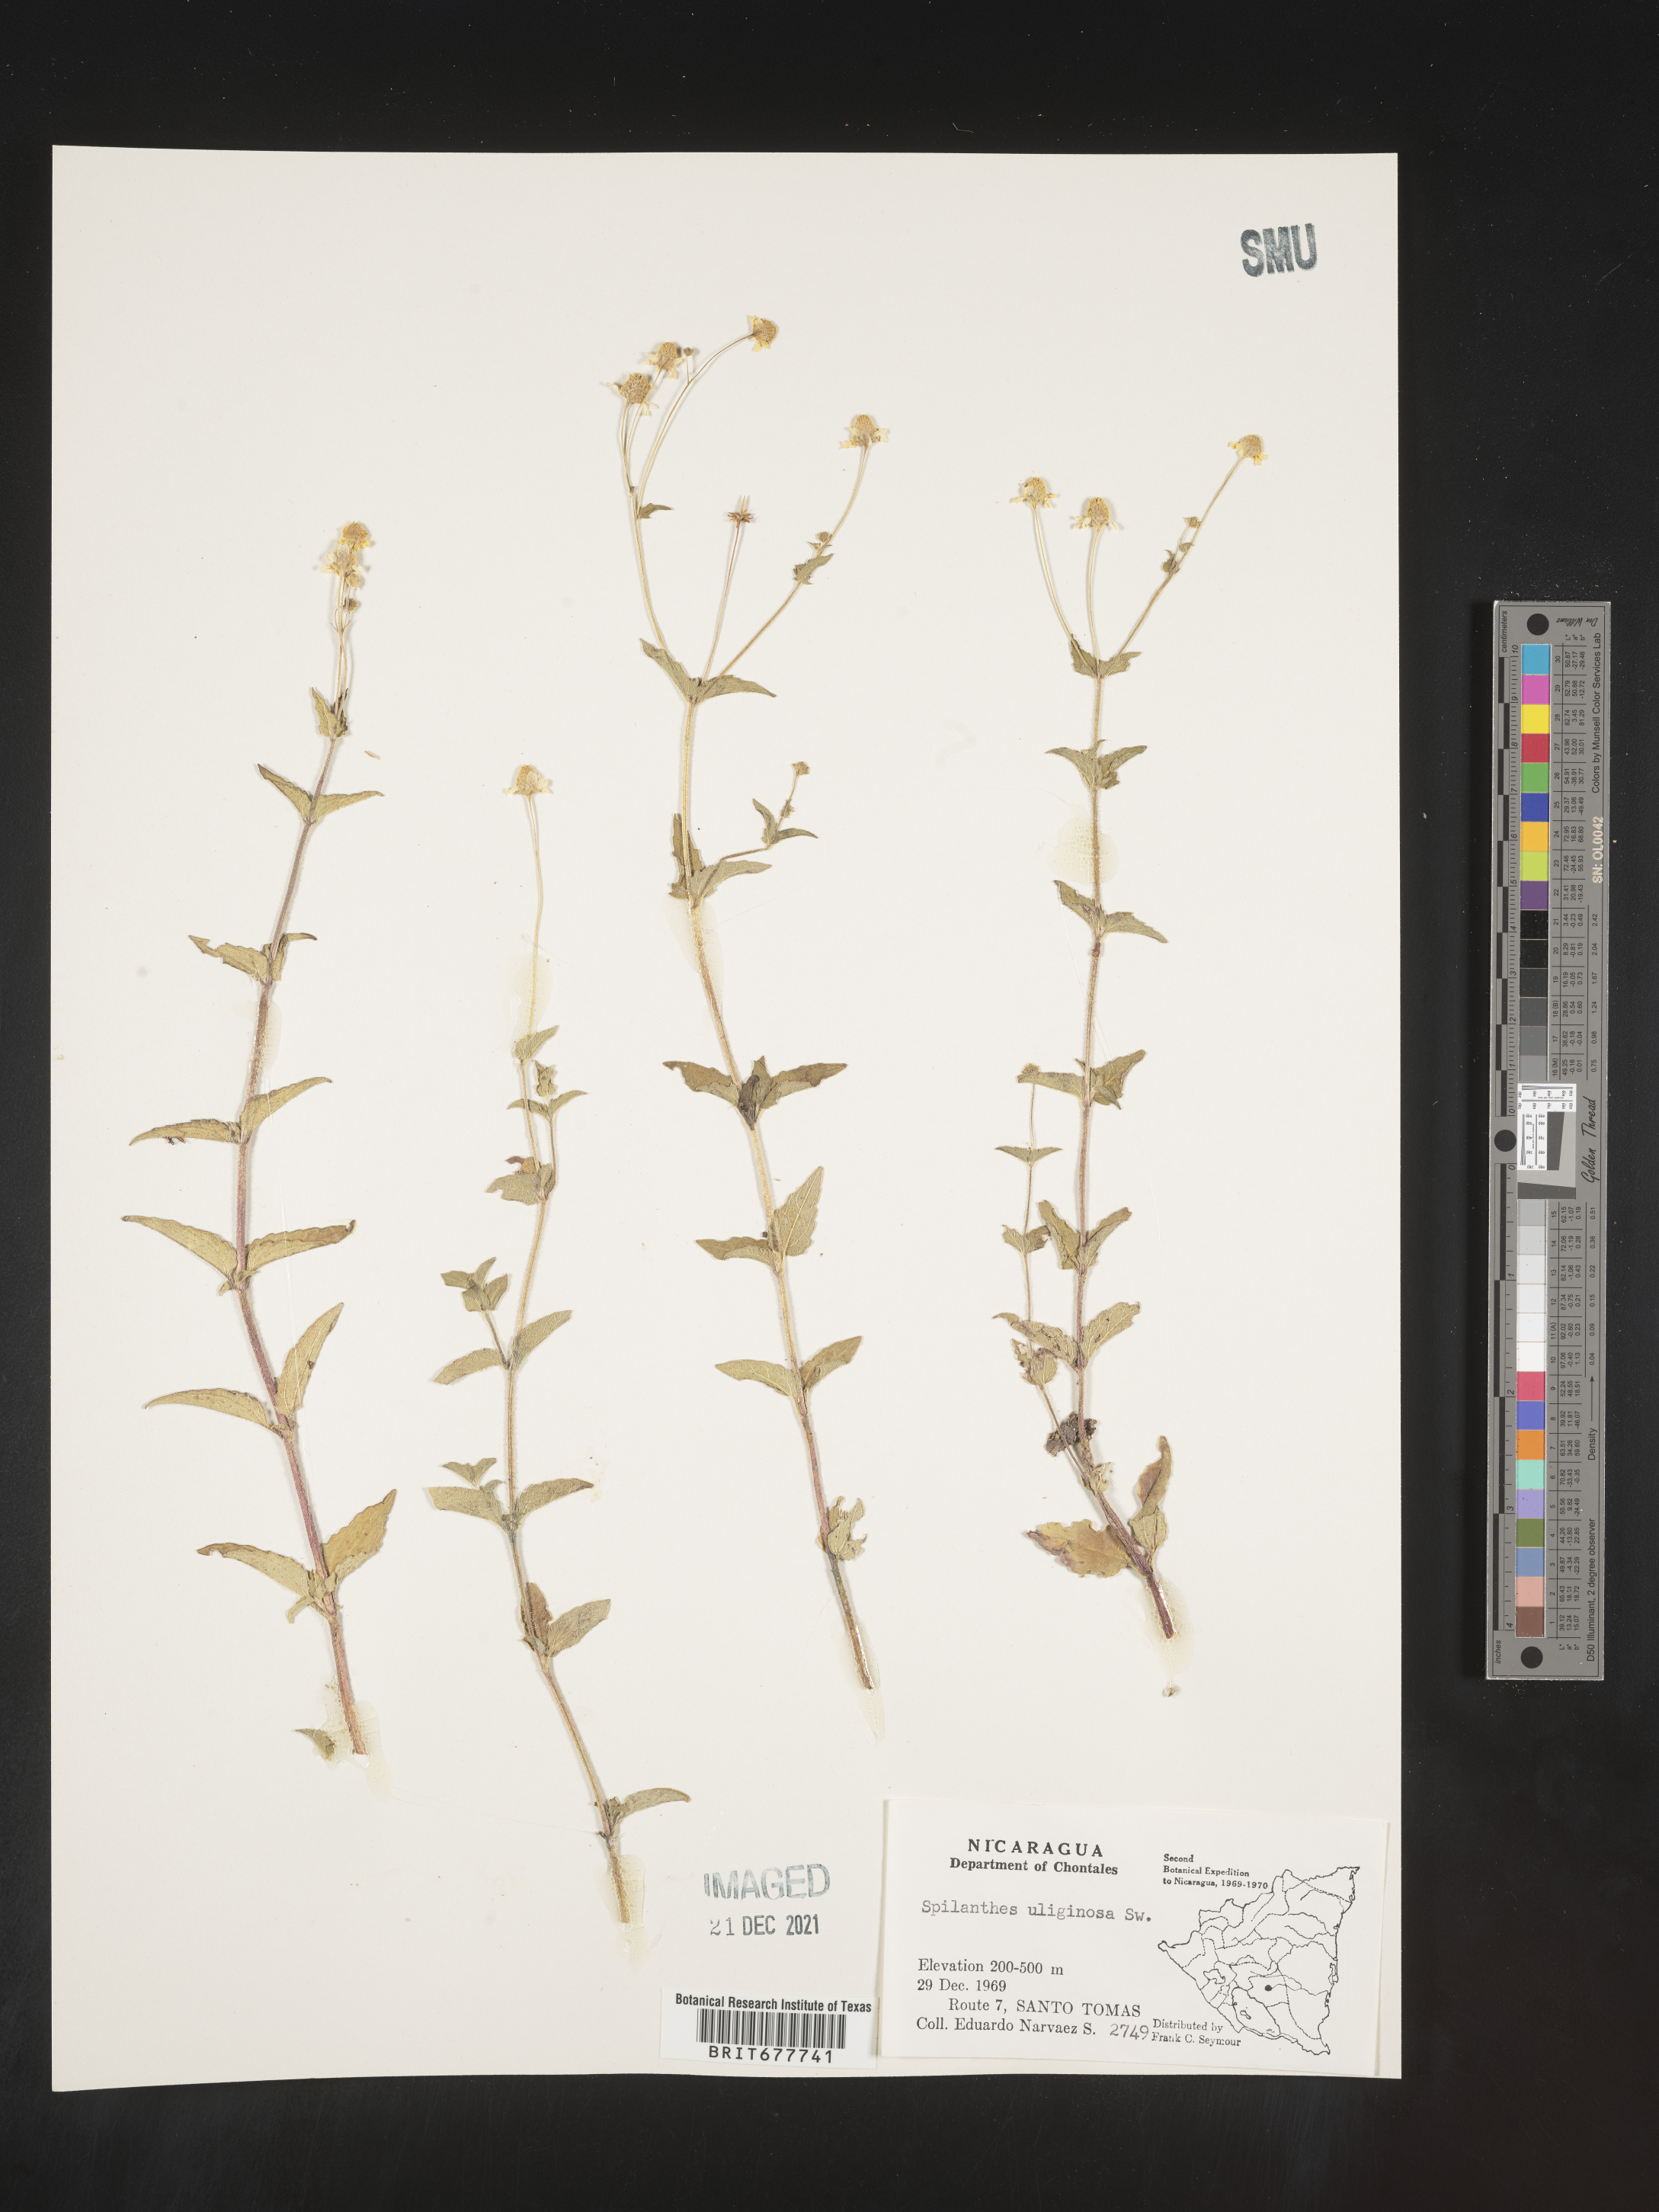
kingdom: Plantae
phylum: Tracheophyta
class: Magnoliopsida
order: Asterales
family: Asteraceae
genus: Spilanthes
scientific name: Spilanthes
